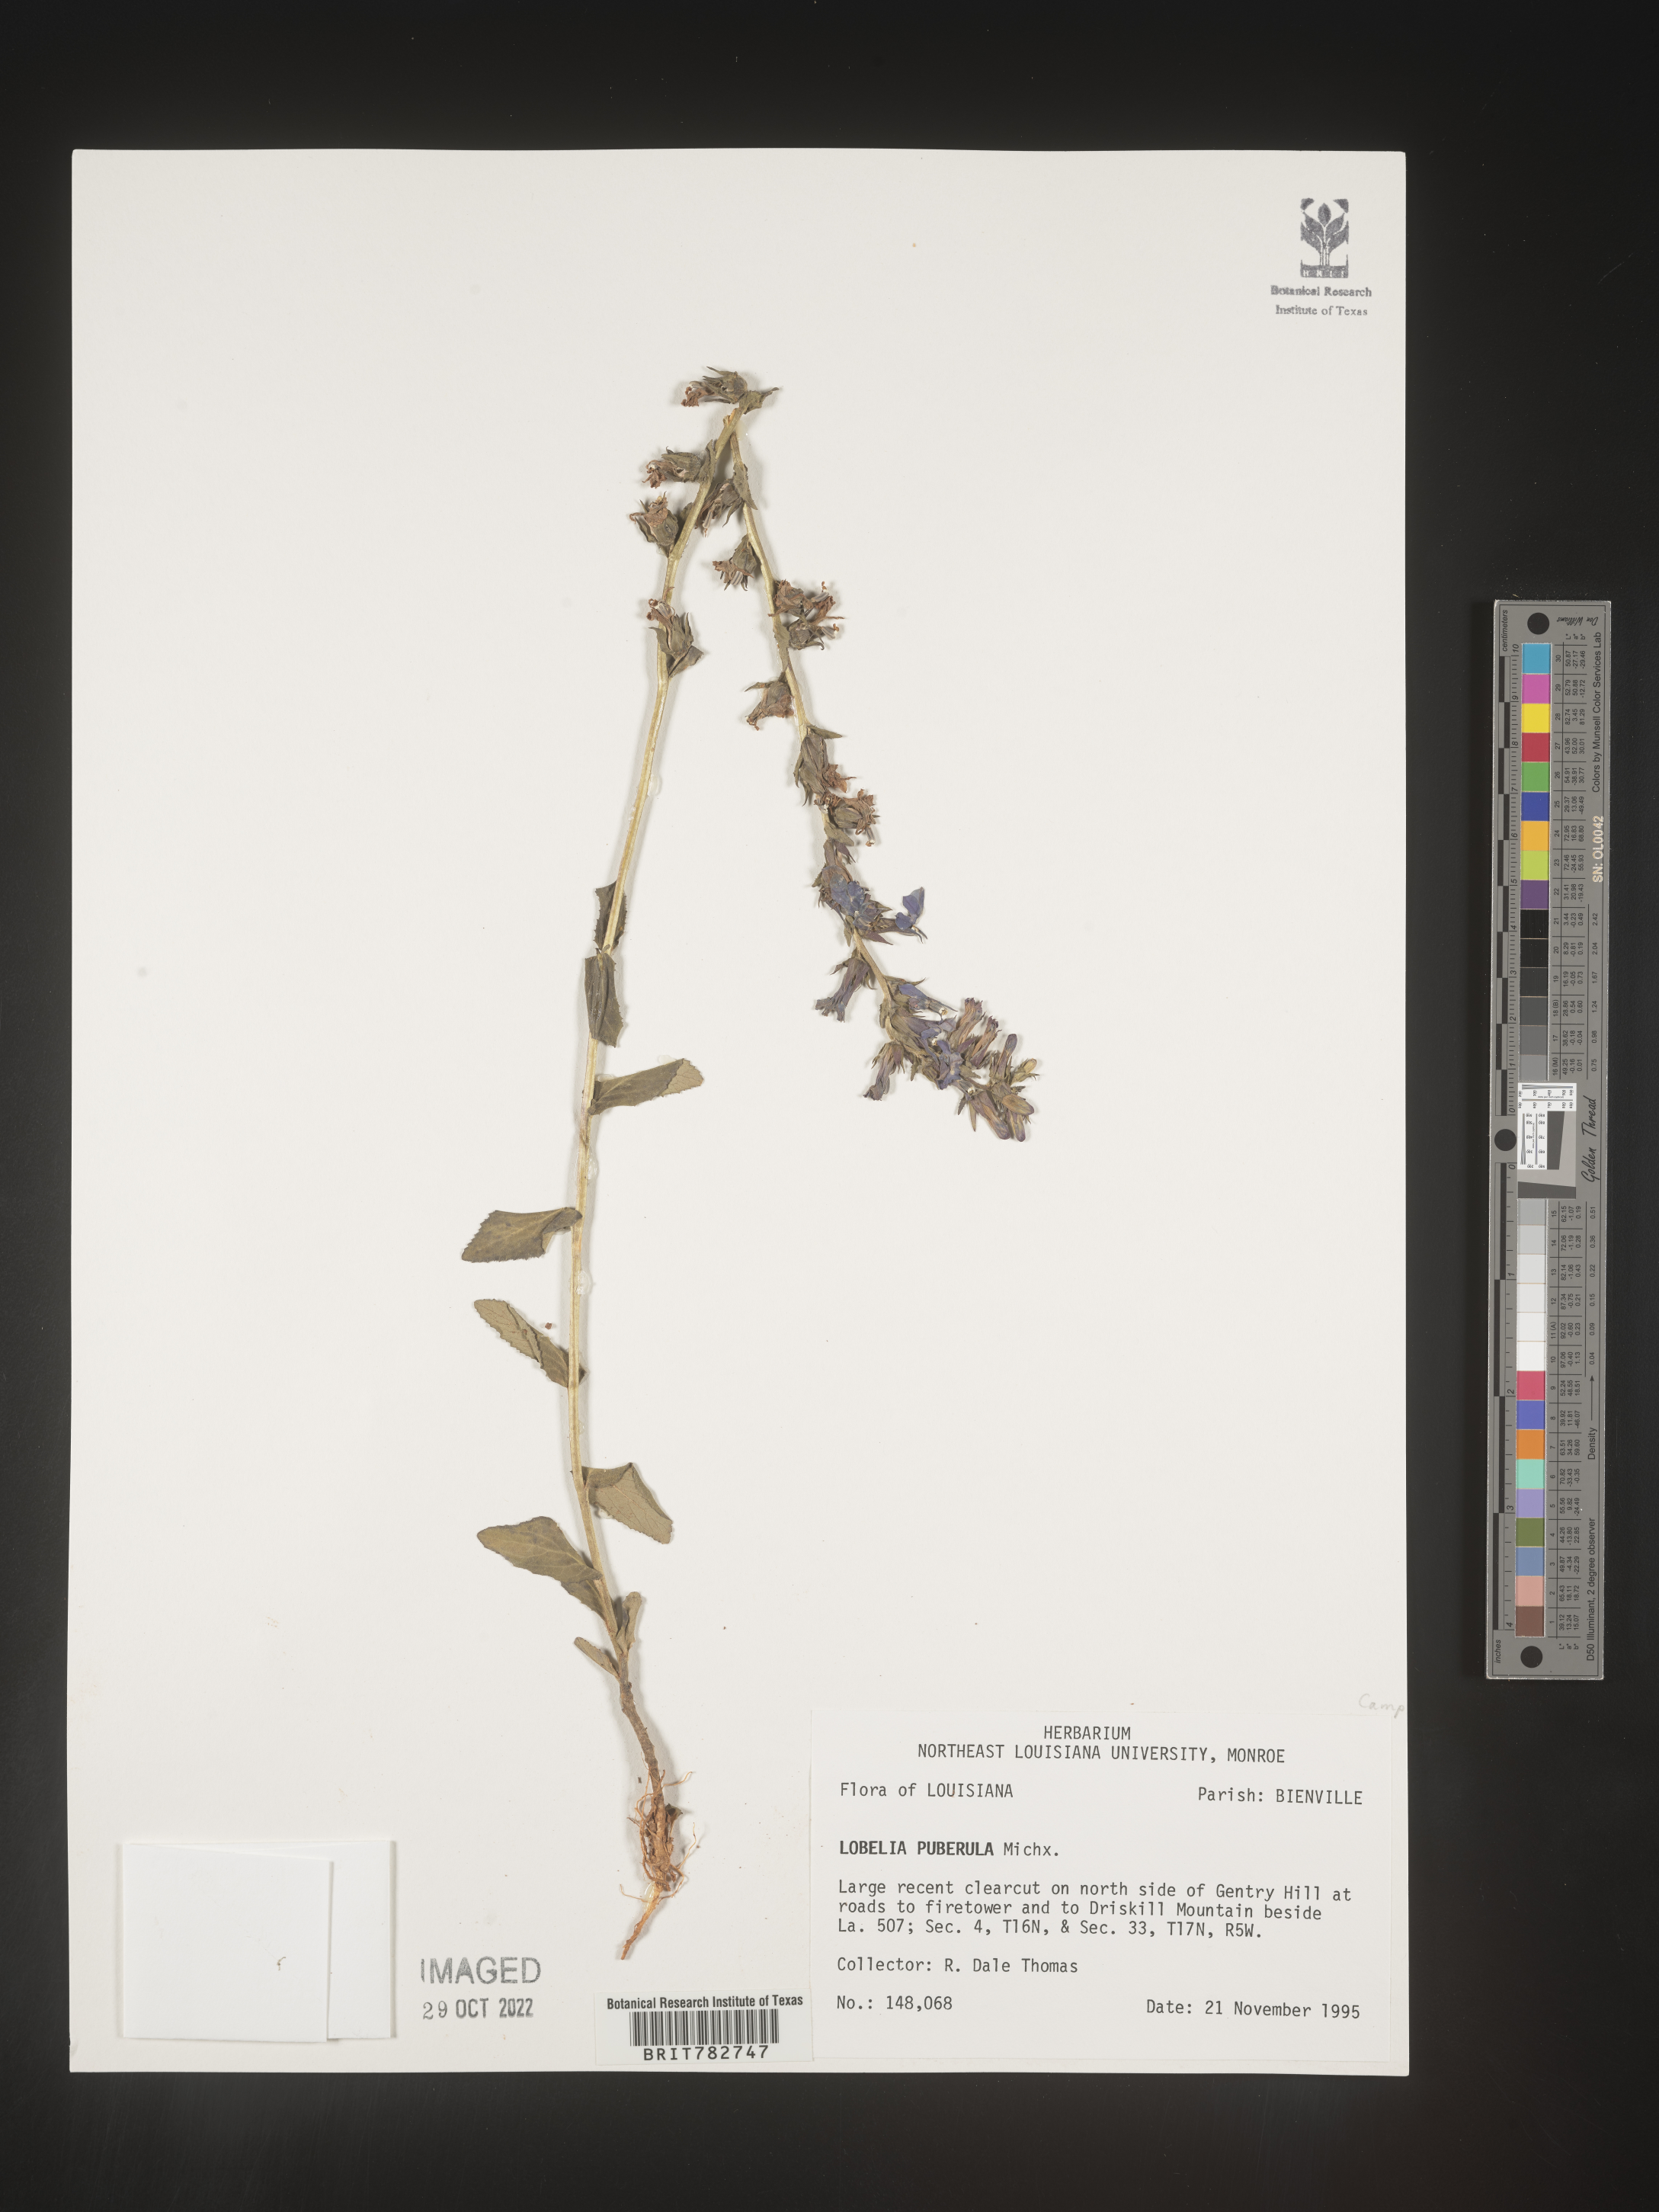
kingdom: Plantae
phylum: Tracheophyta
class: Magnoliopsida
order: Asterales
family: Campanulaceae
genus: Lobelia
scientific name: Lobelia puberula
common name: Purple dewdrop
